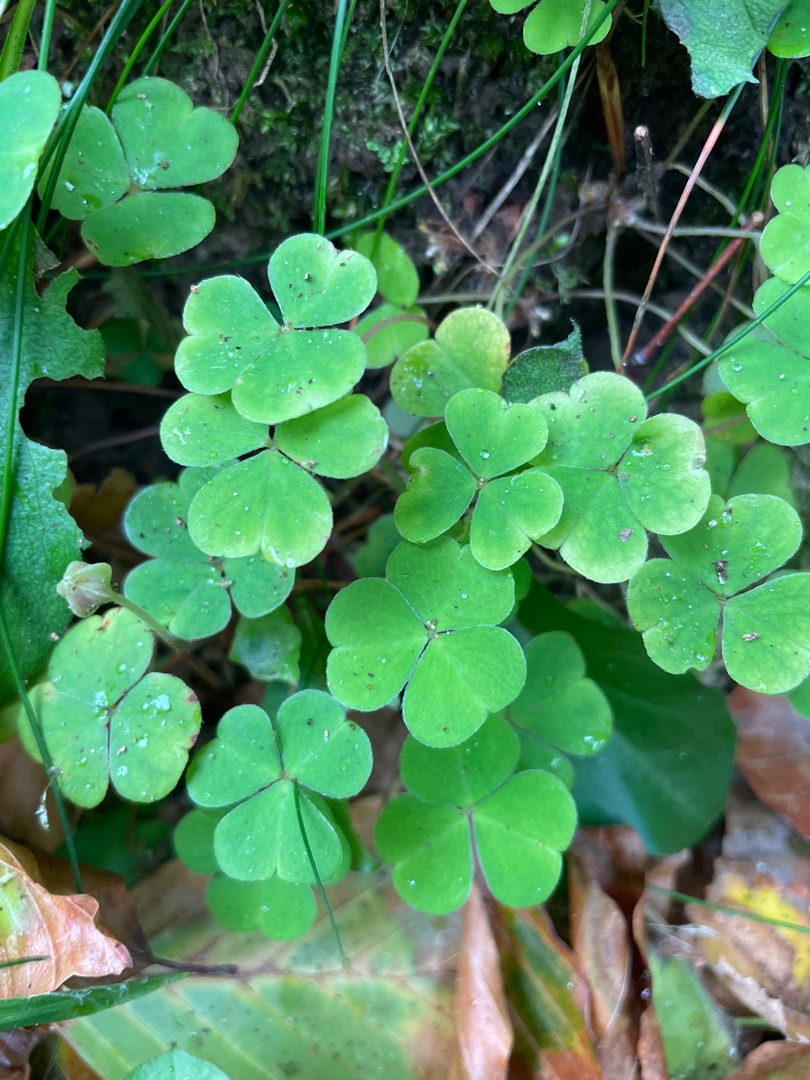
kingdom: Plantae
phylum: Tracheophyta
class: Magnoliopsida
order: Oxalidales
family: Oxalidaceae
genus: Oxalis
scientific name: Oxalis acetosella
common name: Skovsyre
